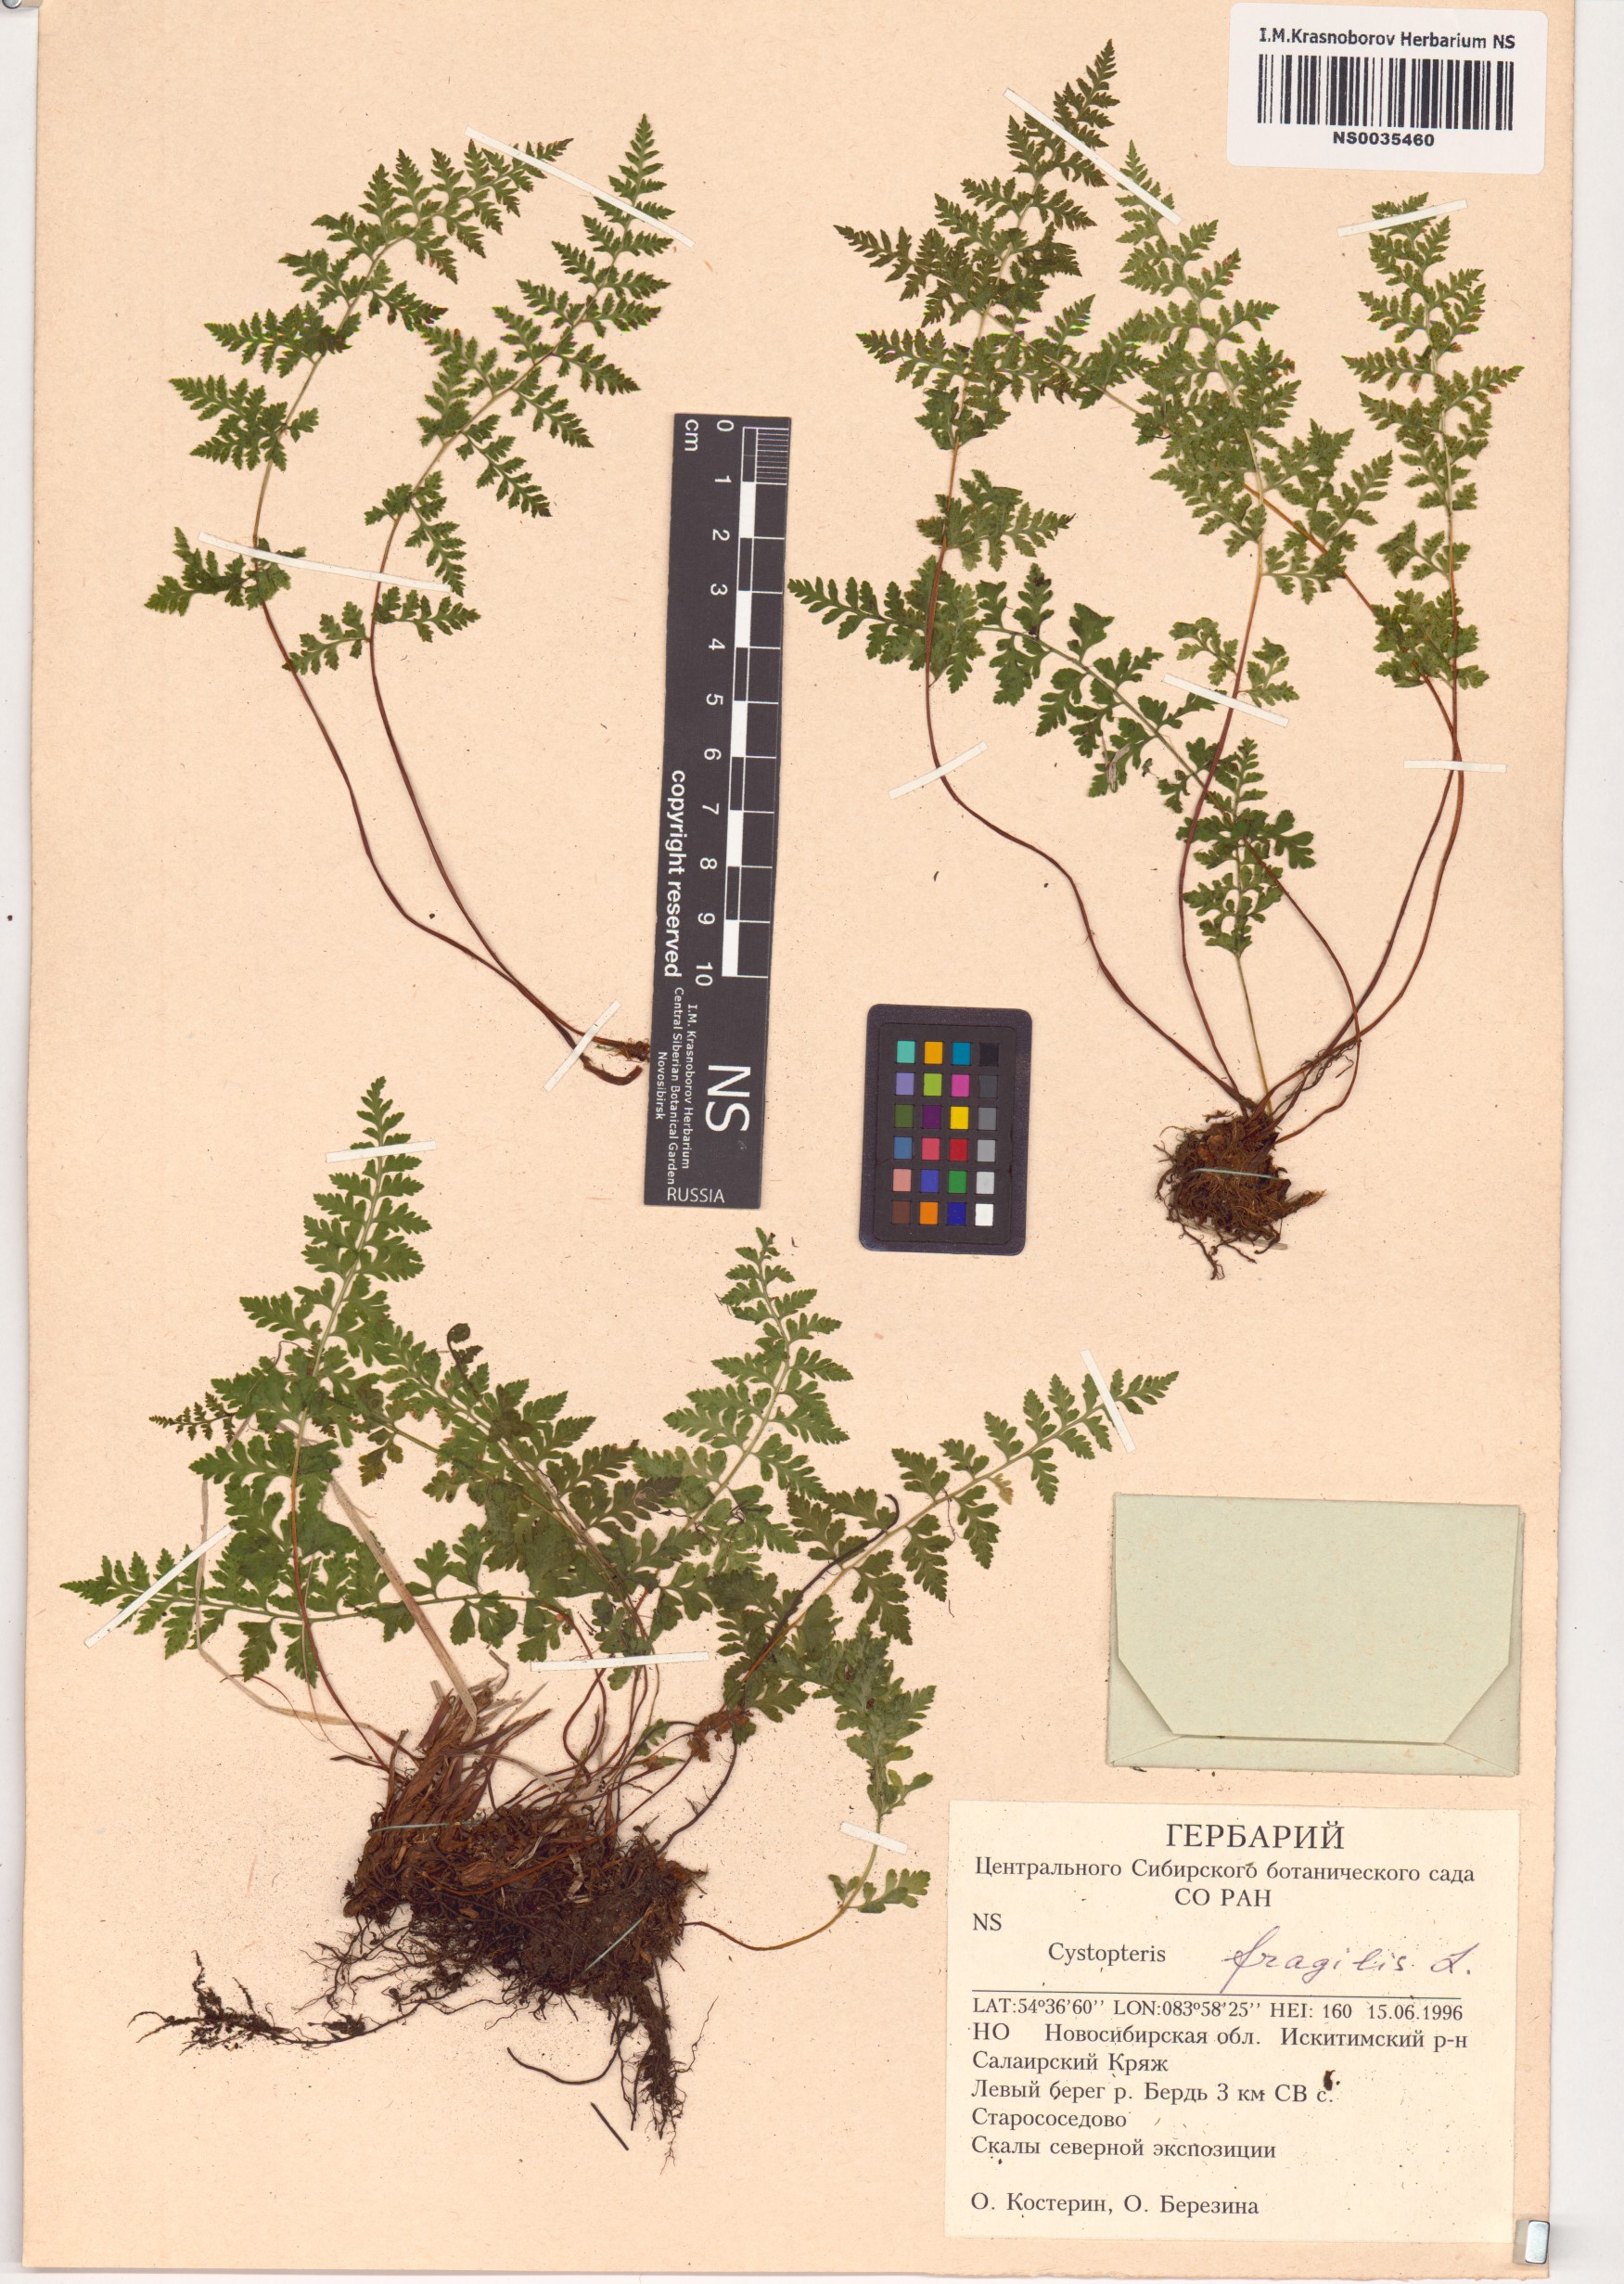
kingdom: Plantae
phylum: Tracheophyta
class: Polypodiopsida
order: Polypodiales
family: Cystopteridaceae
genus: Cystopteris
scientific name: Cystopteris fragilis
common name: Brittle bladder fern
